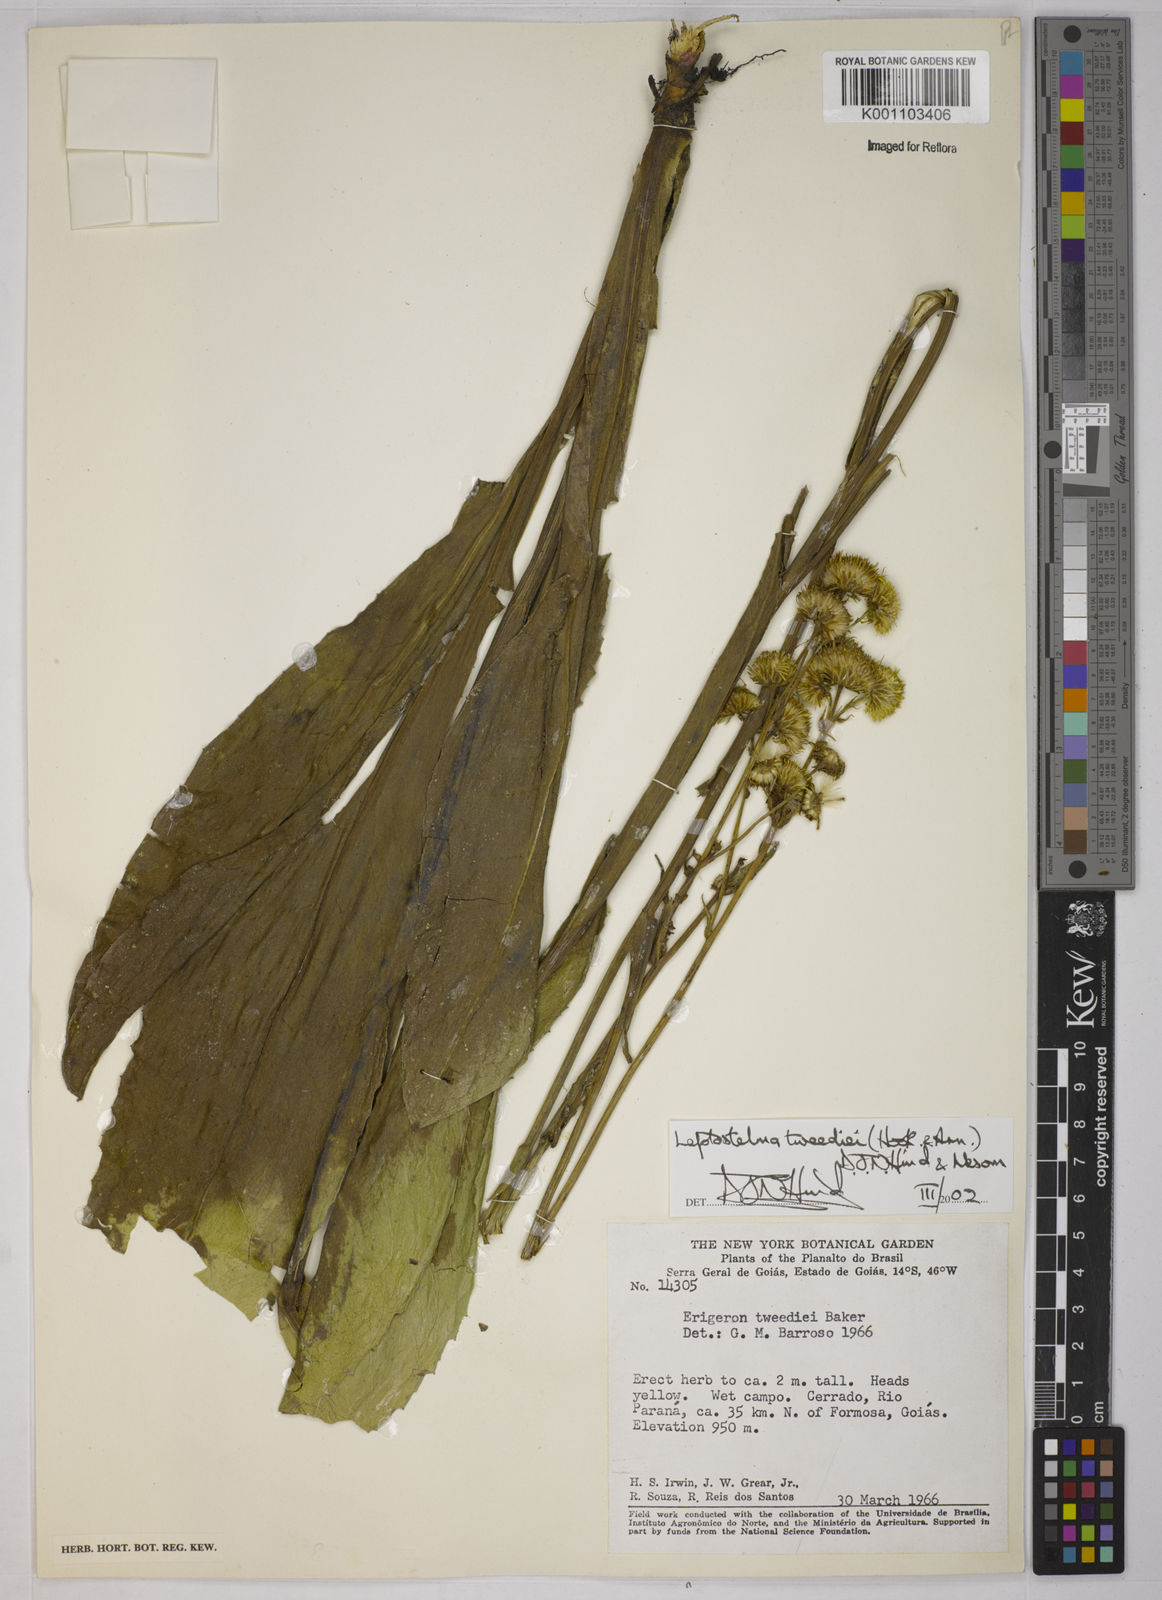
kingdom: Plantae
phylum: Tracheophyta
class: Magnoliopsida
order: Asterales
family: Asteraceae
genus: Leptostelma
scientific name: Leptostelma tweediei
